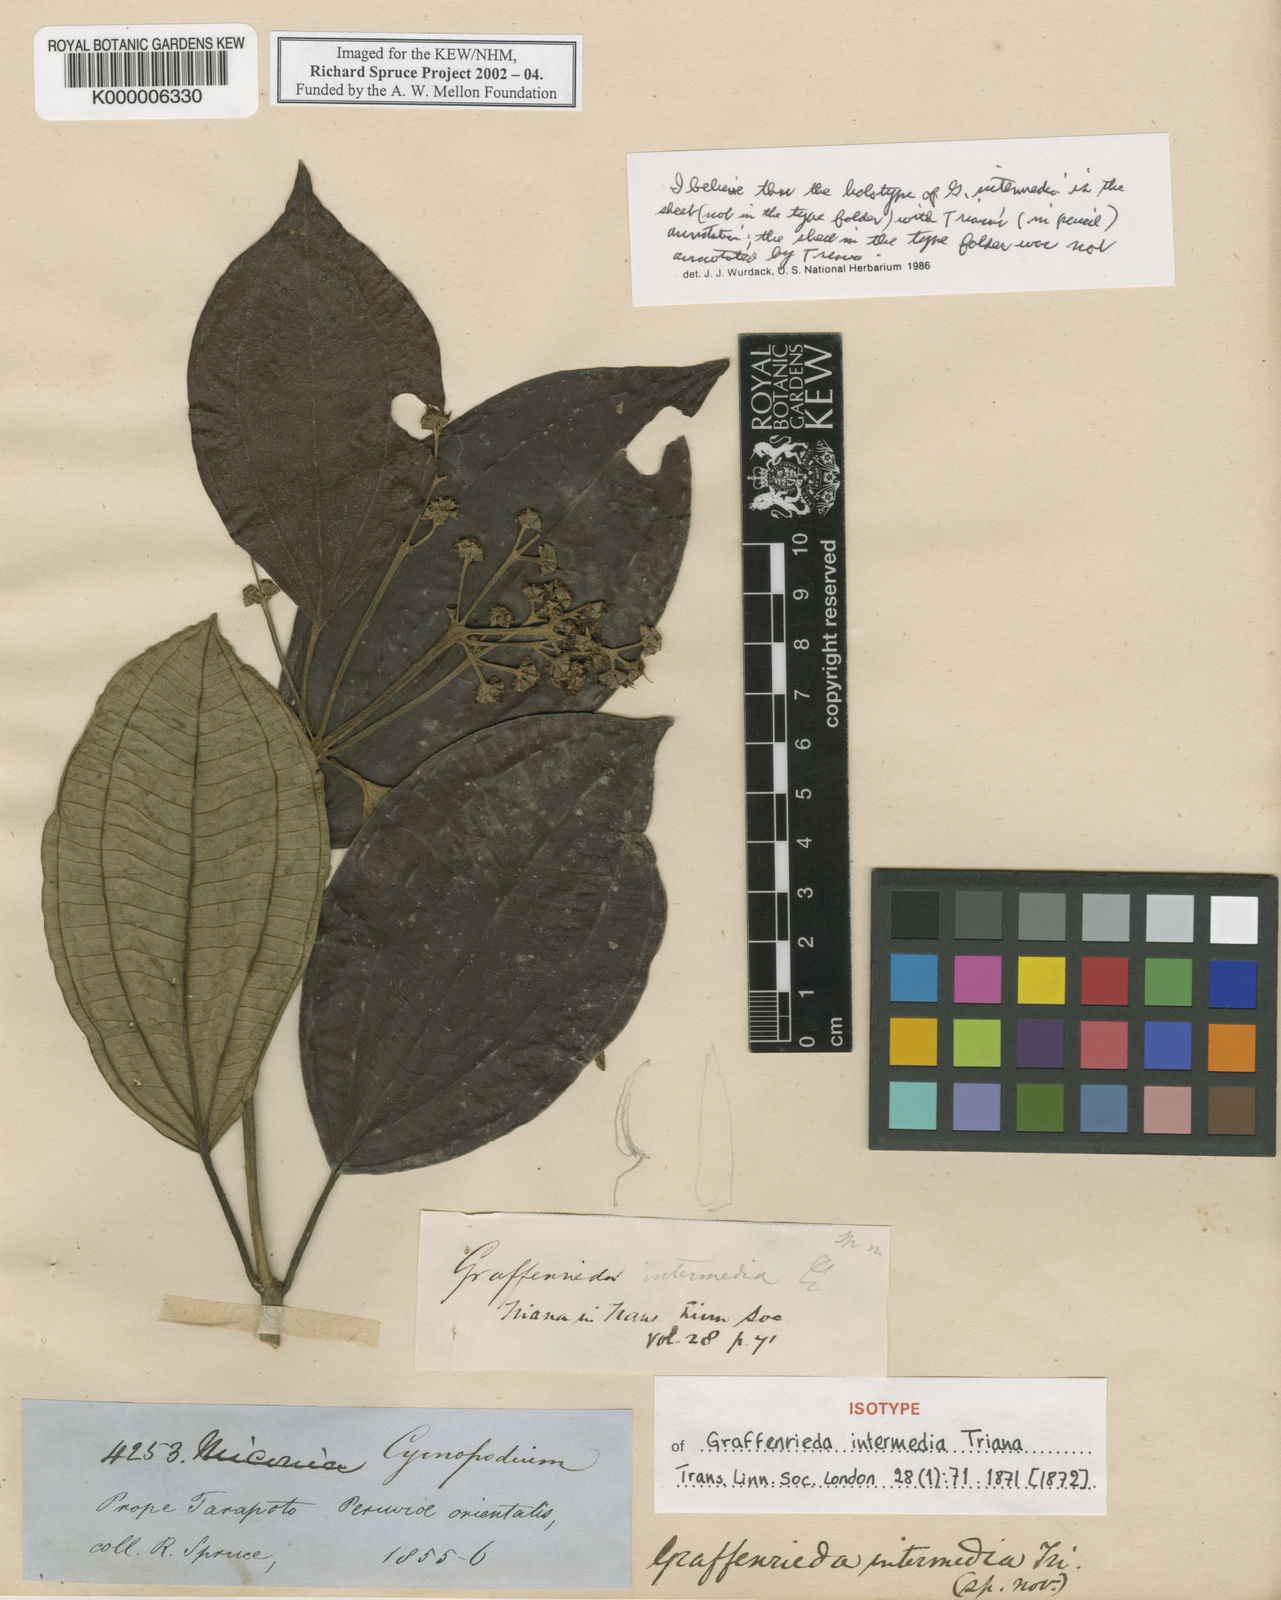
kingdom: Plantae
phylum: Tracheophyta
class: Magnoliopsida
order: Myrtales
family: Melastomataceae
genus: Graffenrieda
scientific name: Graffenrieda intermedia
